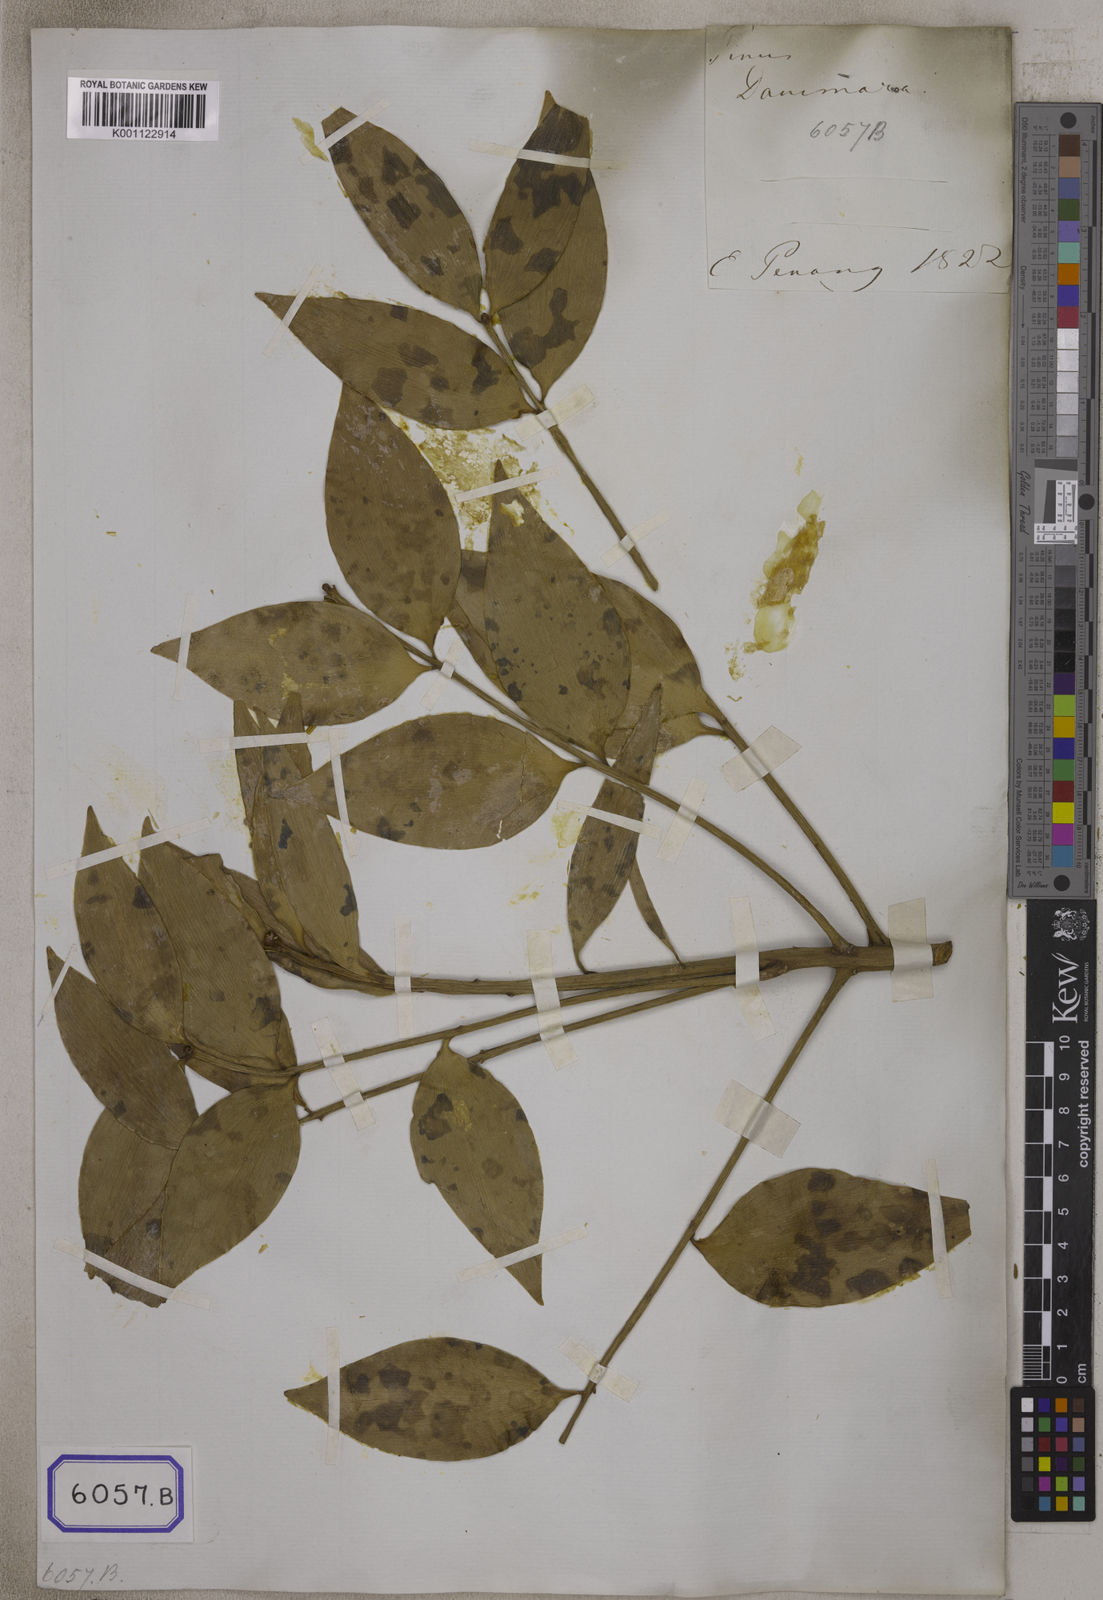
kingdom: Plantae
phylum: Tracheophyta
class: Pinopsida
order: Pinales
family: Araucariaceae
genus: Agathis
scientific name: Agathis dammara
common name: Amboina pitch tree
